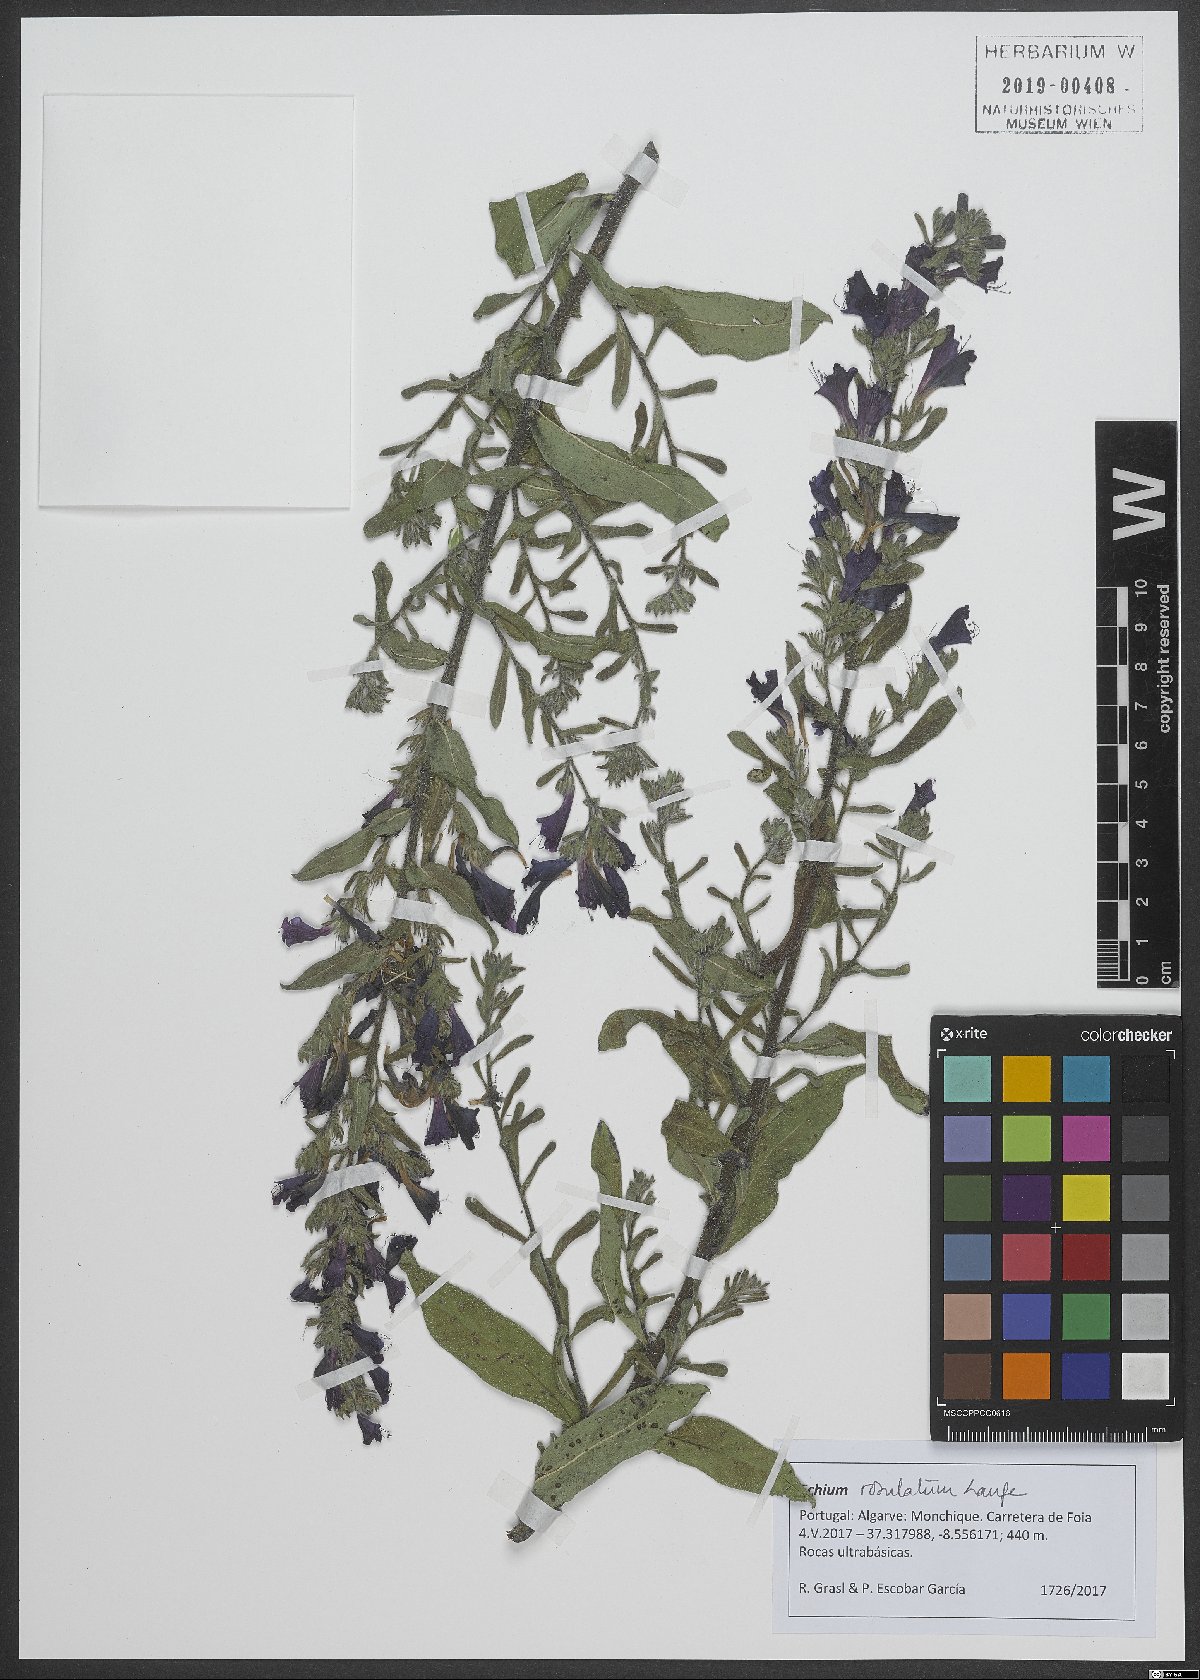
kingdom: Plantae
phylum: Tracheophyta
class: Magnoliopsida
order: Boraginales
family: Boraginaceae
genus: Echium
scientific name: Echium rosulatum
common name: Lax viper's-bugloss
